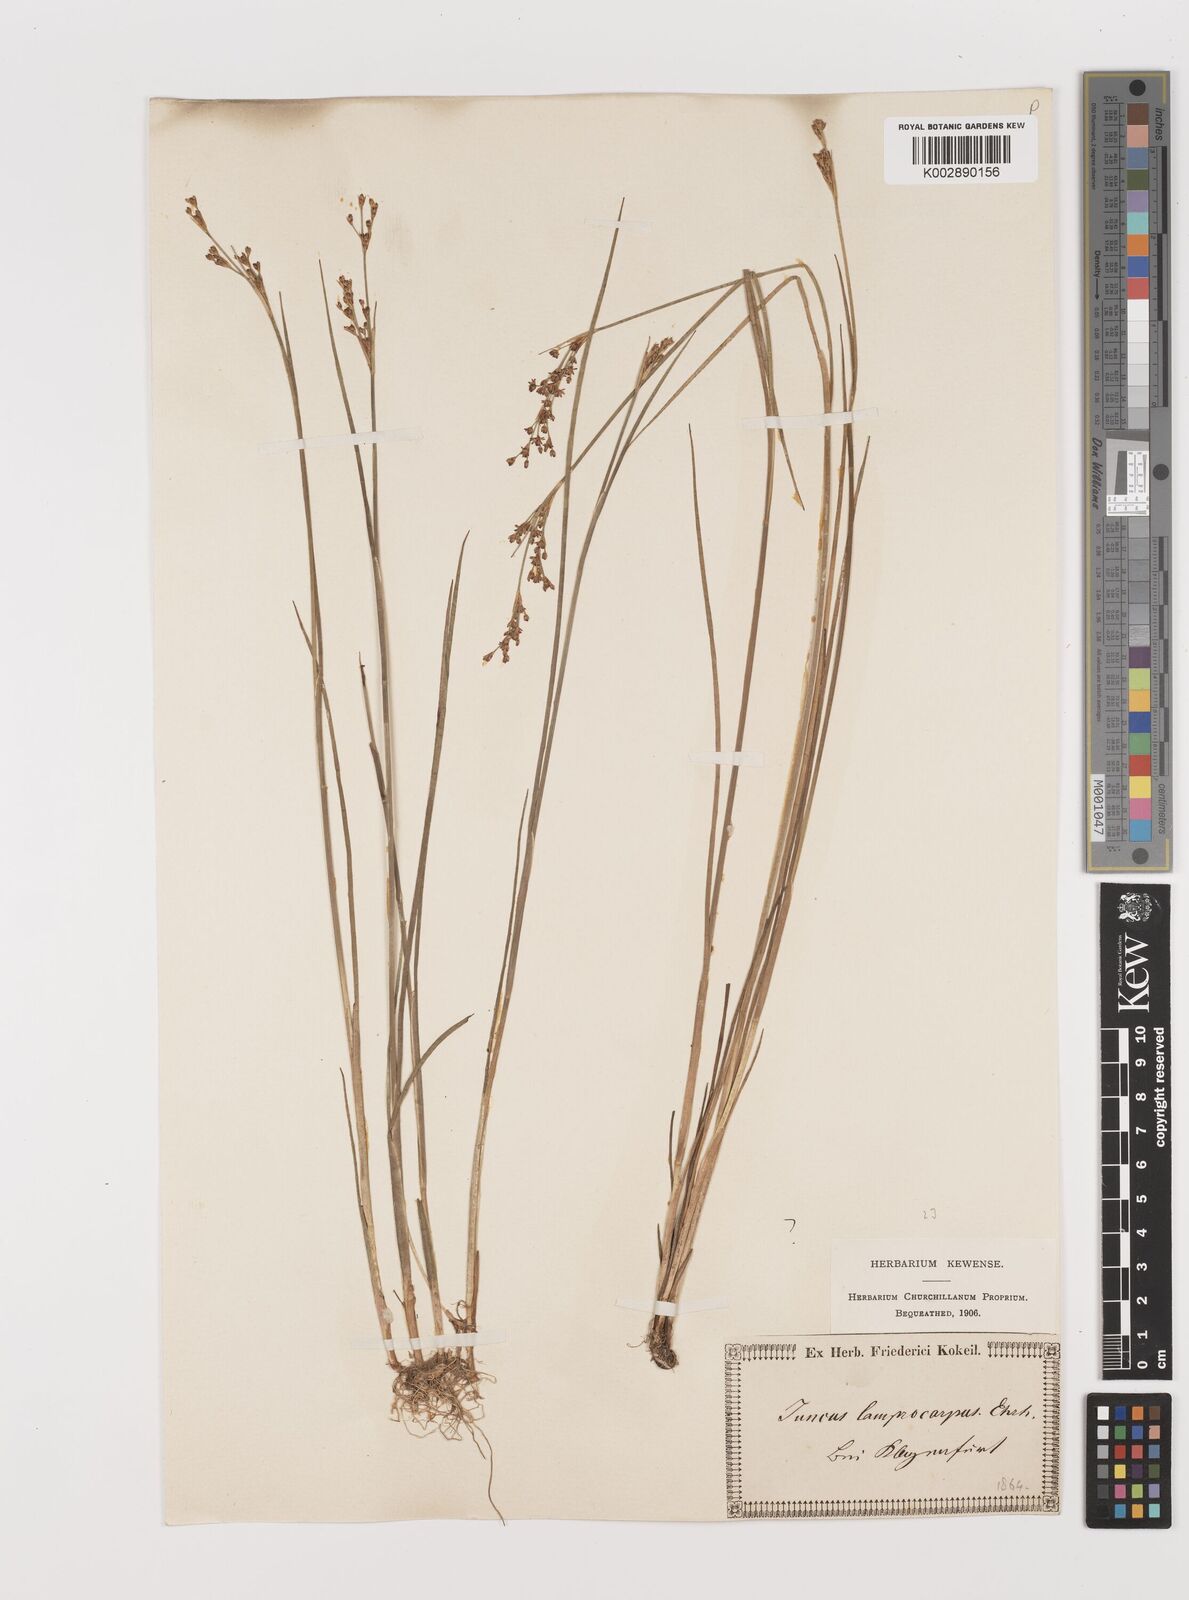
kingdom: Plantae
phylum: Tracheophyta
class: Liliopsida
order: Poales
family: Juncaceae
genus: Juncus
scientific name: Juncus articulatus
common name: Jointed rush
